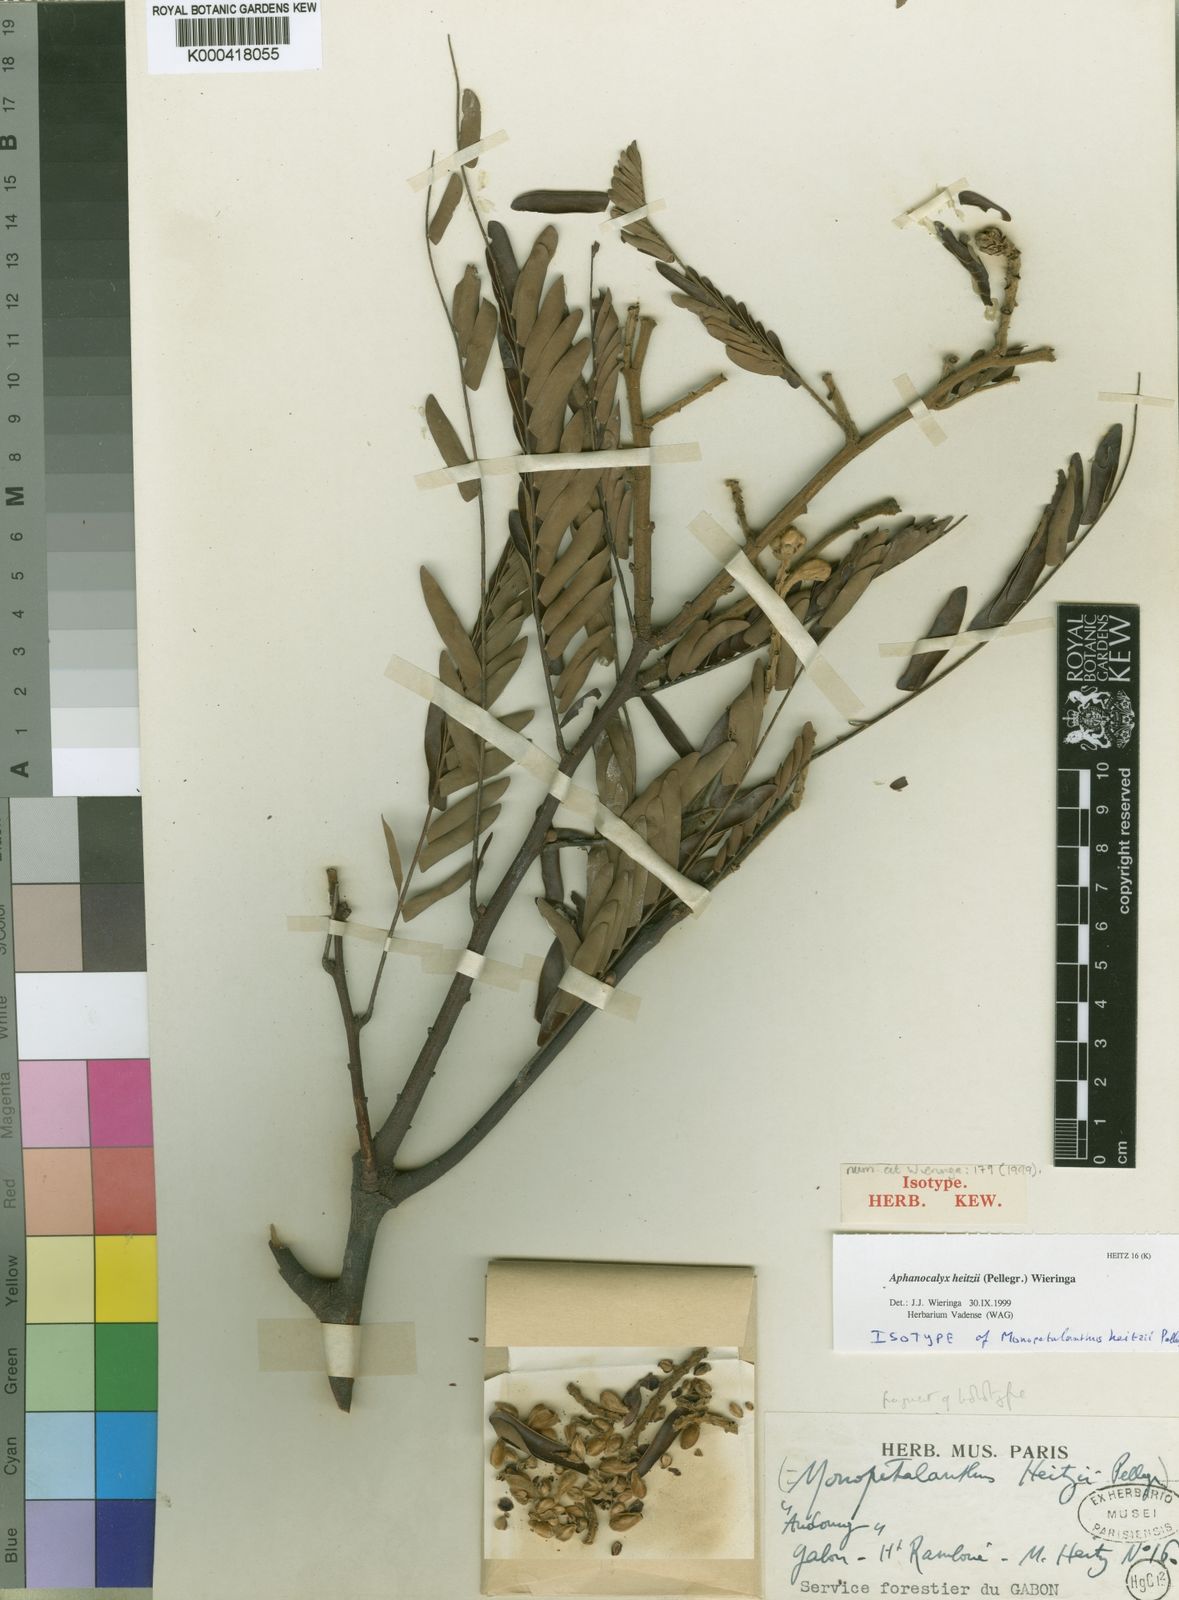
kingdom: Plantae
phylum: Tracheophyta
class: Magnoliopsida
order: Fabales
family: Fabaceae
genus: Aphanocalyx
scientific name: Aphanocalyx heitzii
